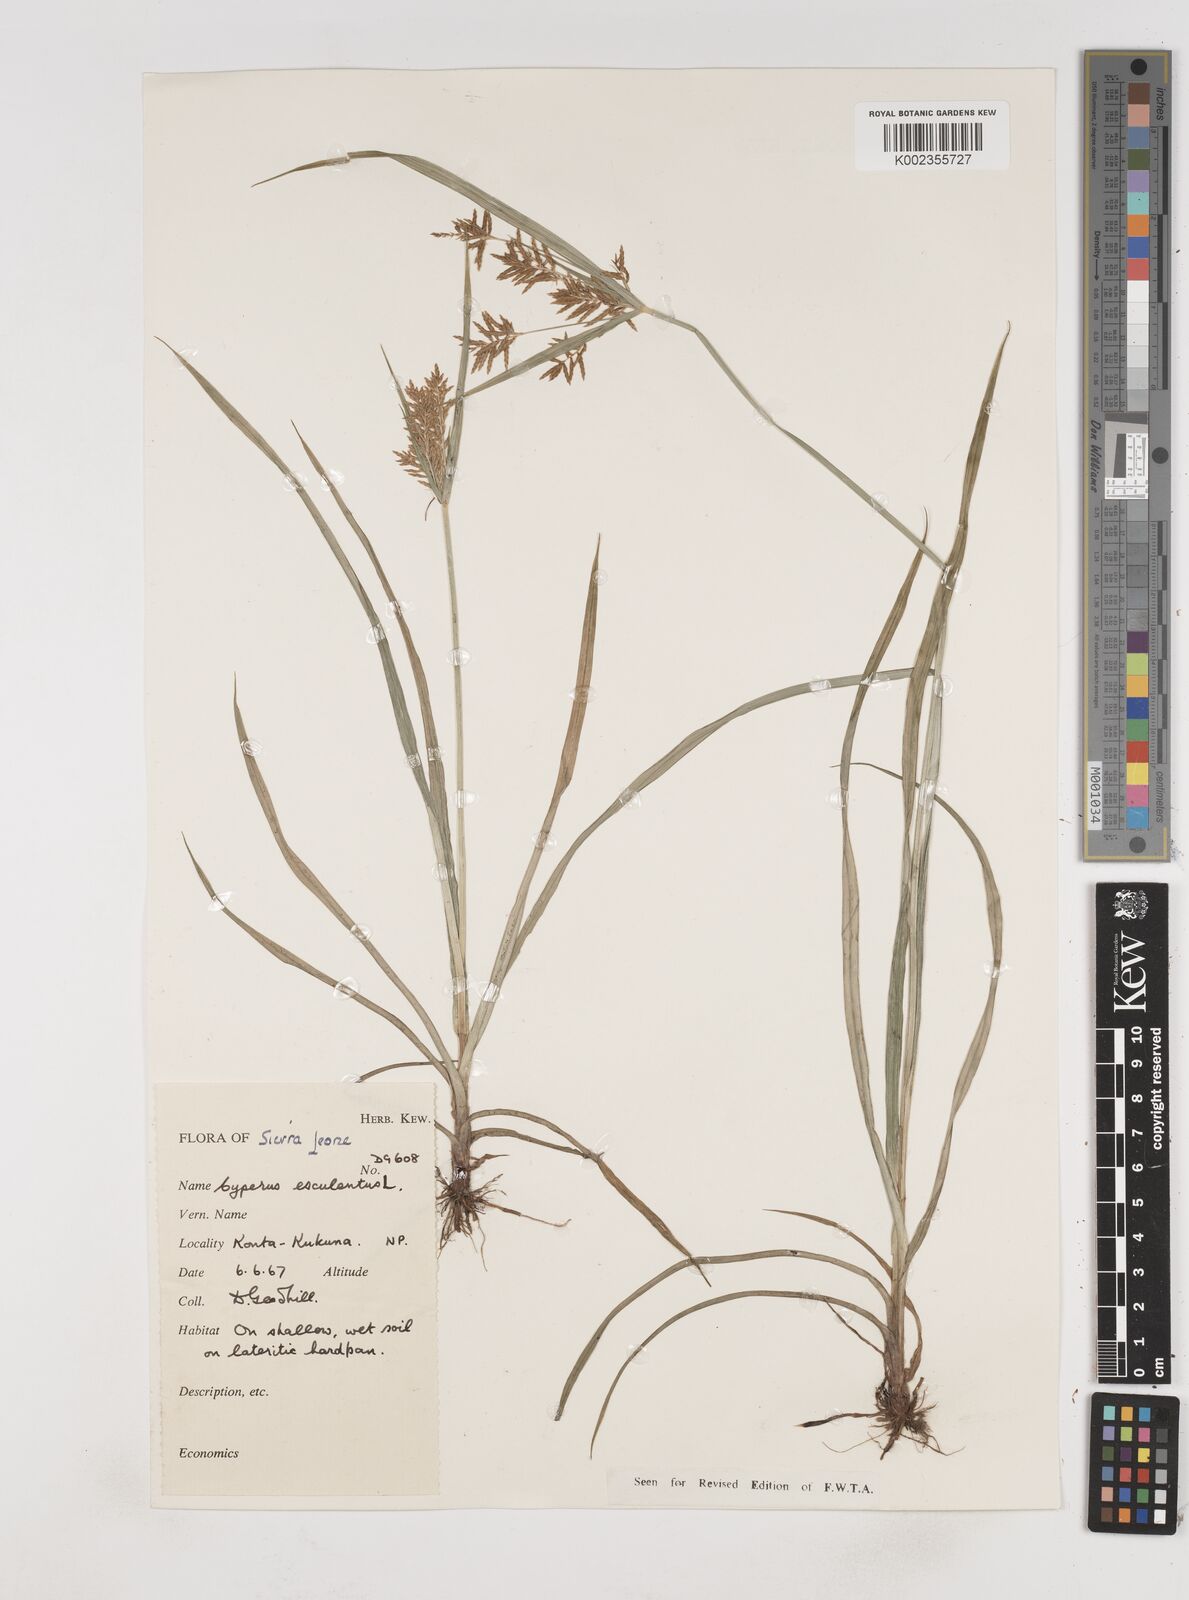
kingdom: Plantae
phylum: Tracheophyta
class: Liliopsida
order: Poales
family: Cyperaceae
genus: Cyperus
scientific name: Cyperus esculentus
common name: Yellow nutsedge
